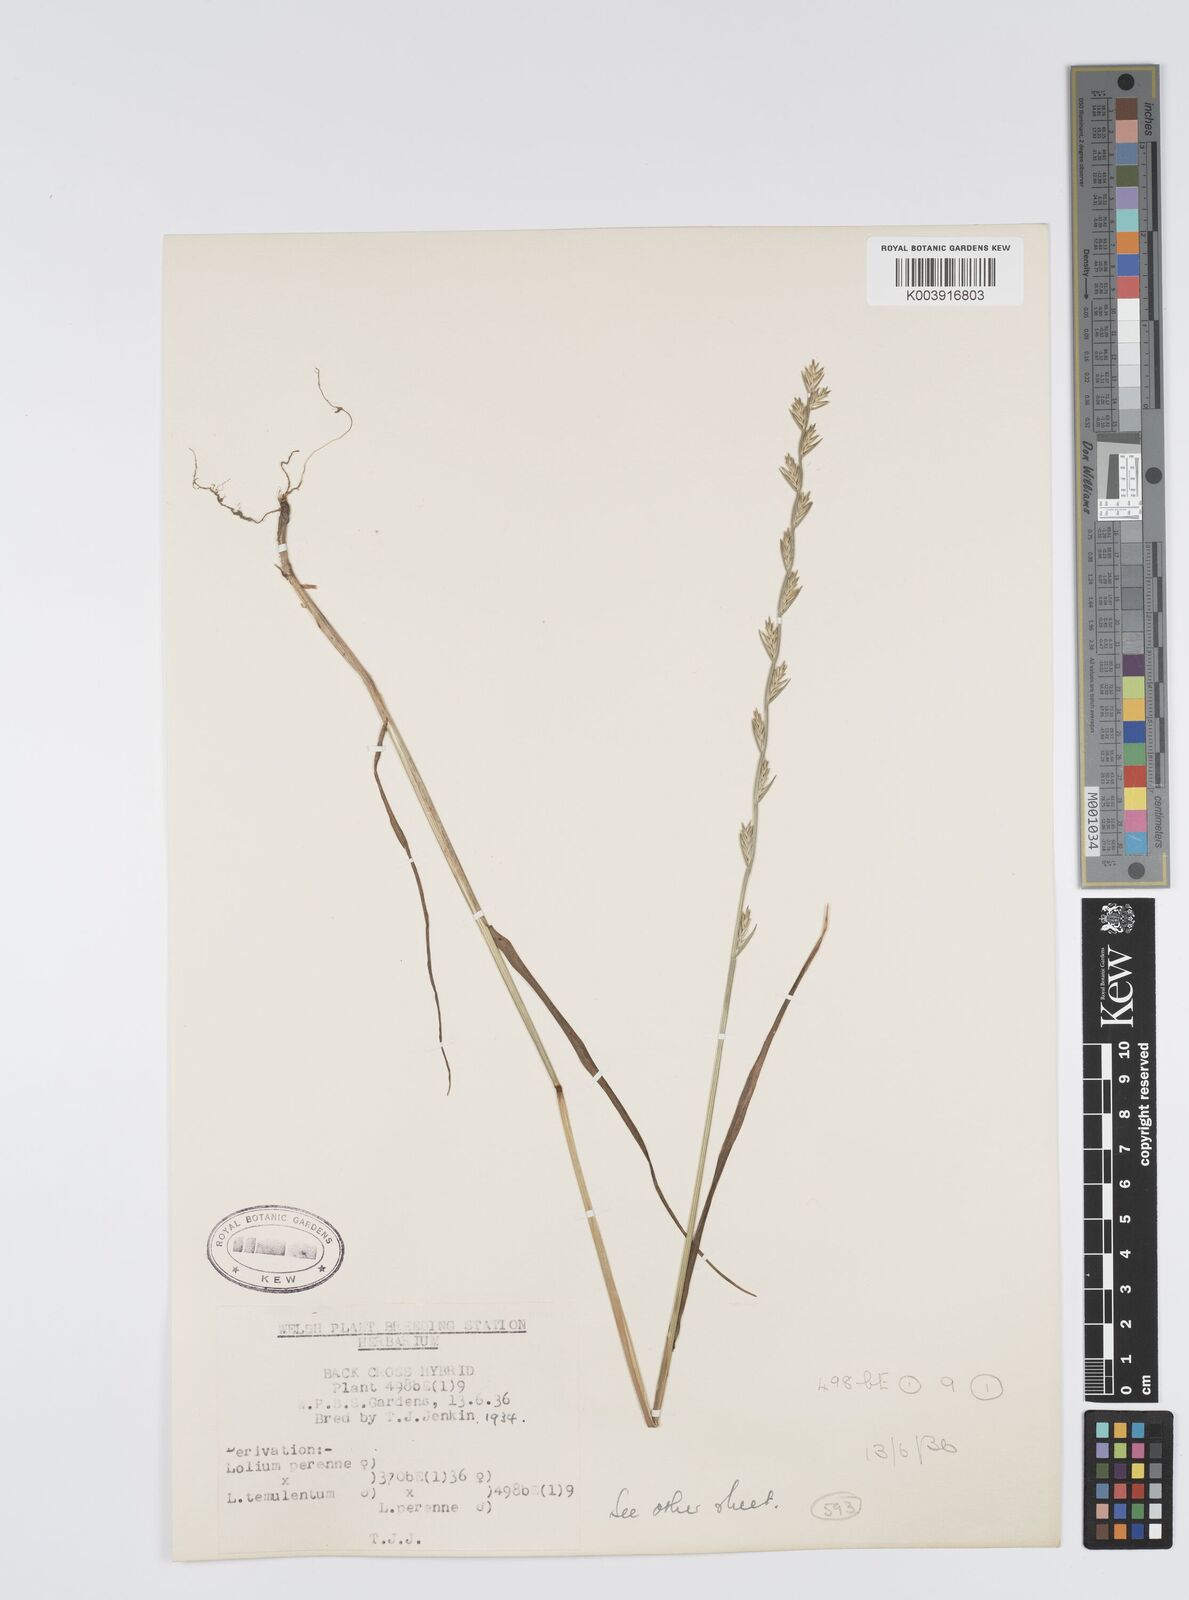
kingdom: Plantae
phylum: Tracheophyta
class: Liliopsida
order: Poales
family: Poaceae
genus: Lolium
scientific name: Lolium perenne
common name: Perennial ryegrass
